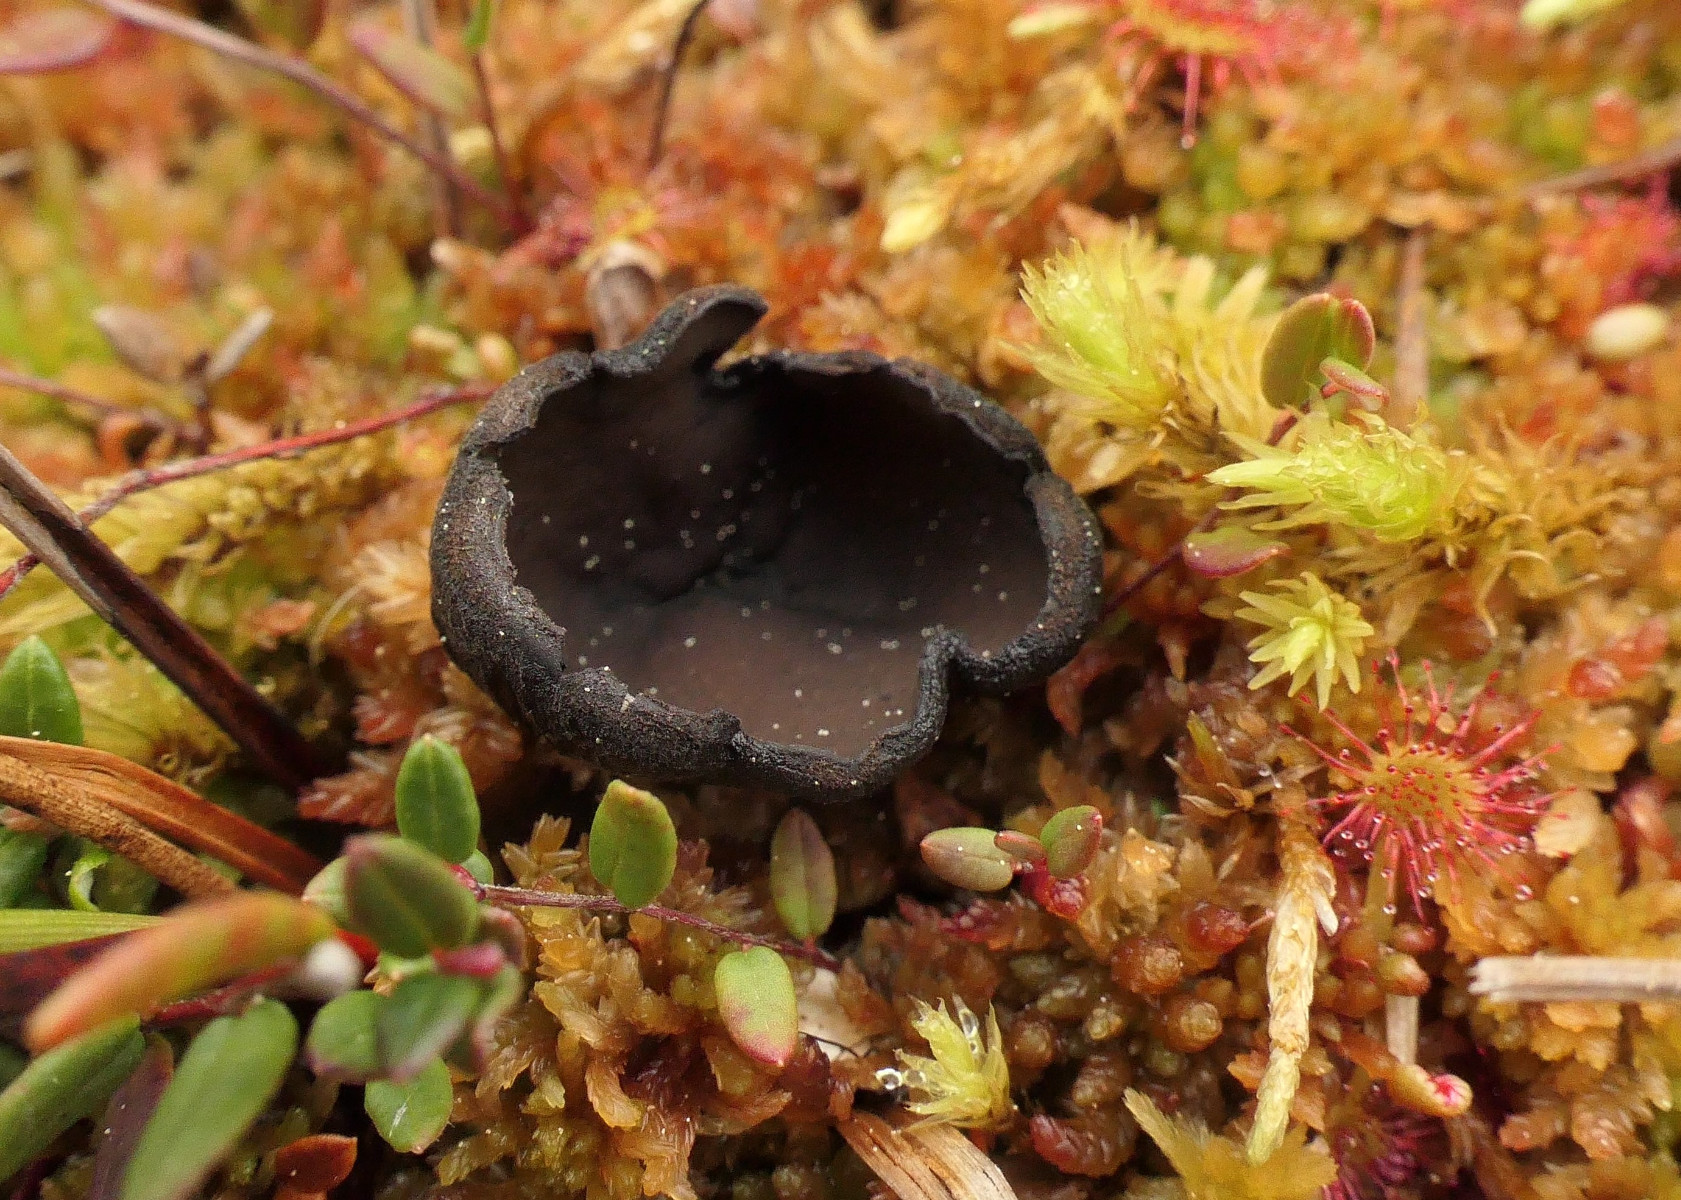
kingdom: Fungi
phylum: Ascomycota
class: Pezizomycetes
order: Pezizales
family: Sarcosomataceae
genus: Pseudoplectania
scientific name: Pseudoplectania episphagnum
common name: tørvemos-sortbæger
